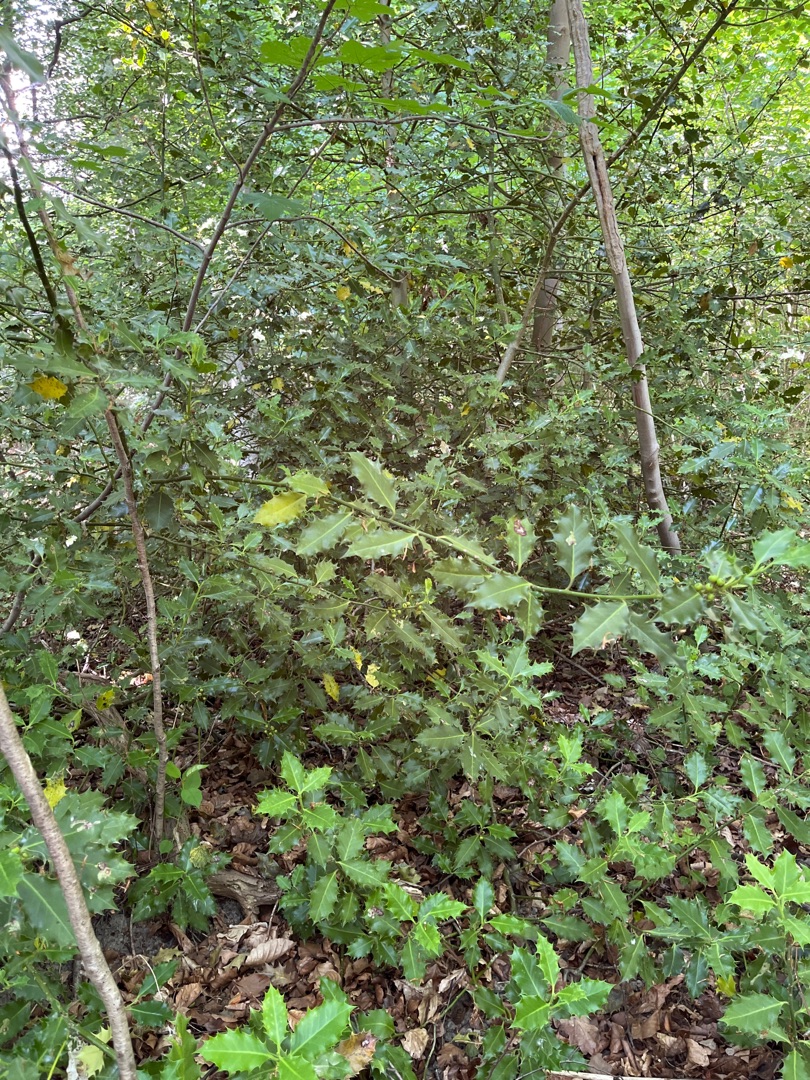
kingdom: Plantae
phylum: Tracheophyta
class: Magnoliopsida
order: Aquifoliales
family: Aquifoliaceae
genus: Ilex
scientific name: Ilex aquifolium
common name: Kristtorn
